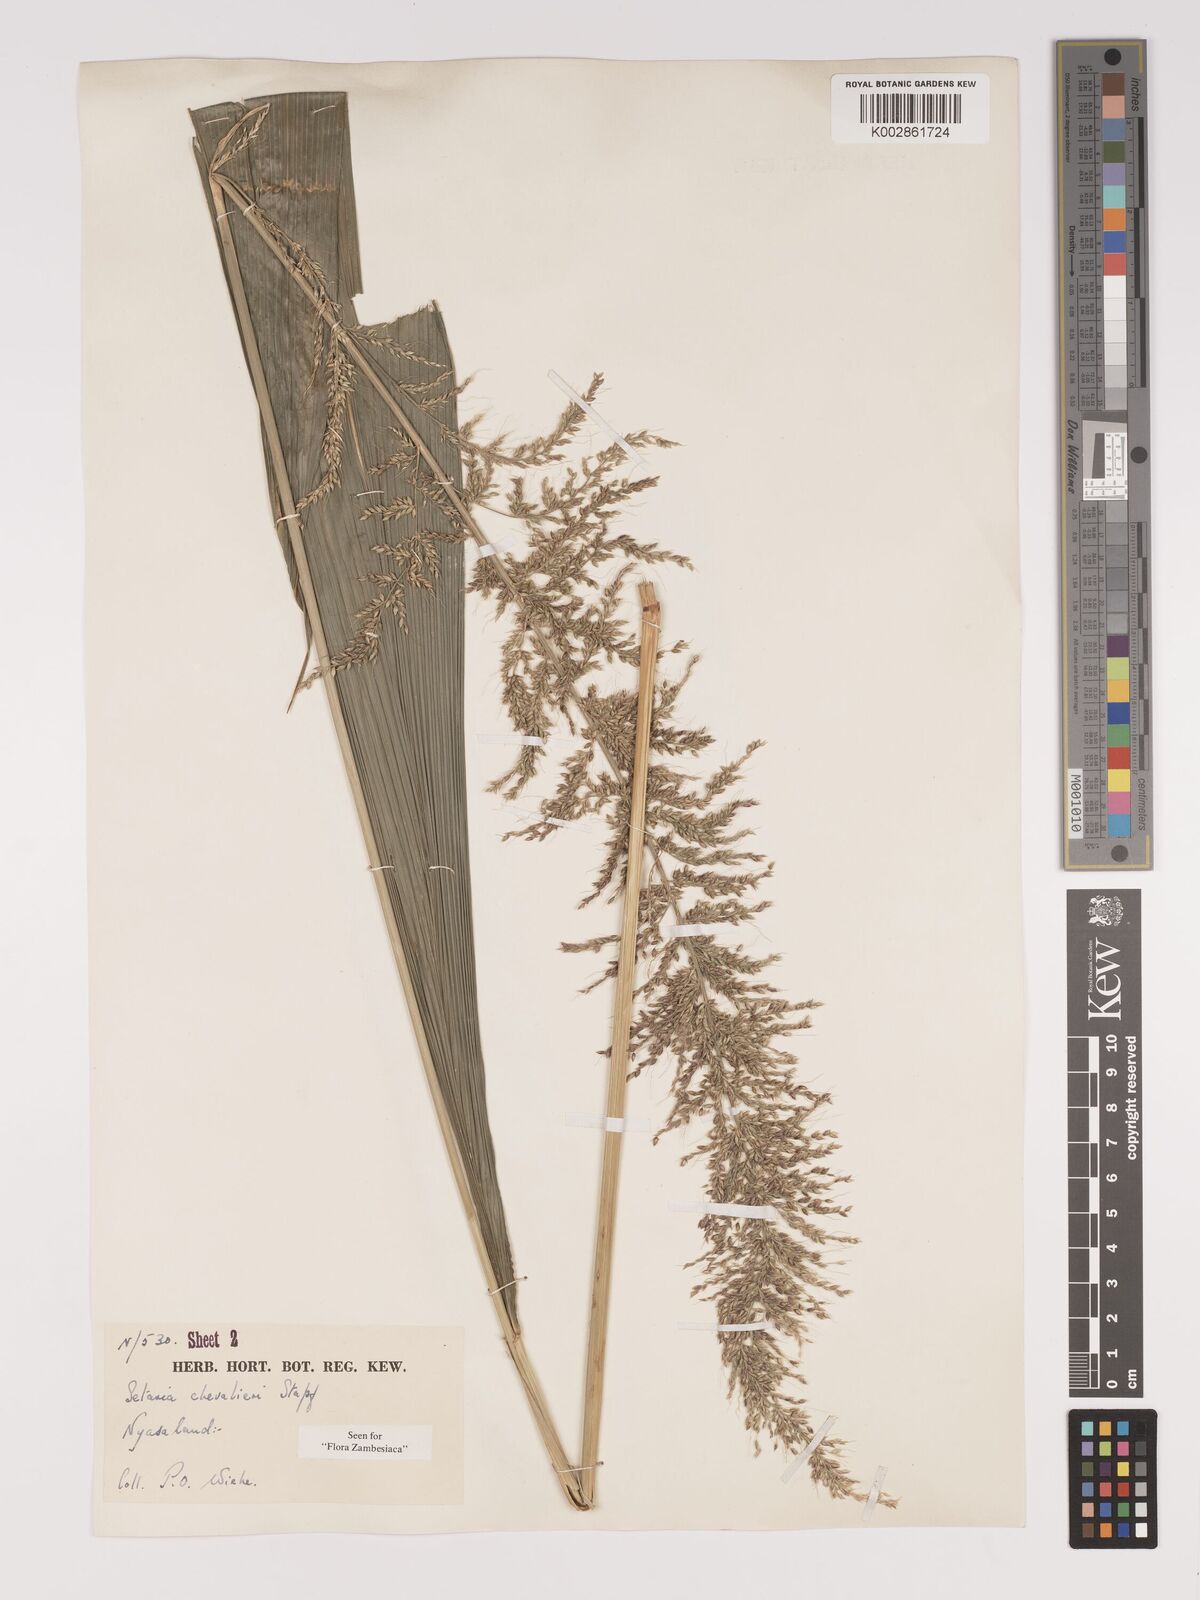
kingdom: Plantae
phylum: Tracheophyta
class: Liliopsida
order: Poales
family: Poaceae
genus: Setaria
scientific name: Setaria megaphylla
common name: Bigleaf bristlegrass
